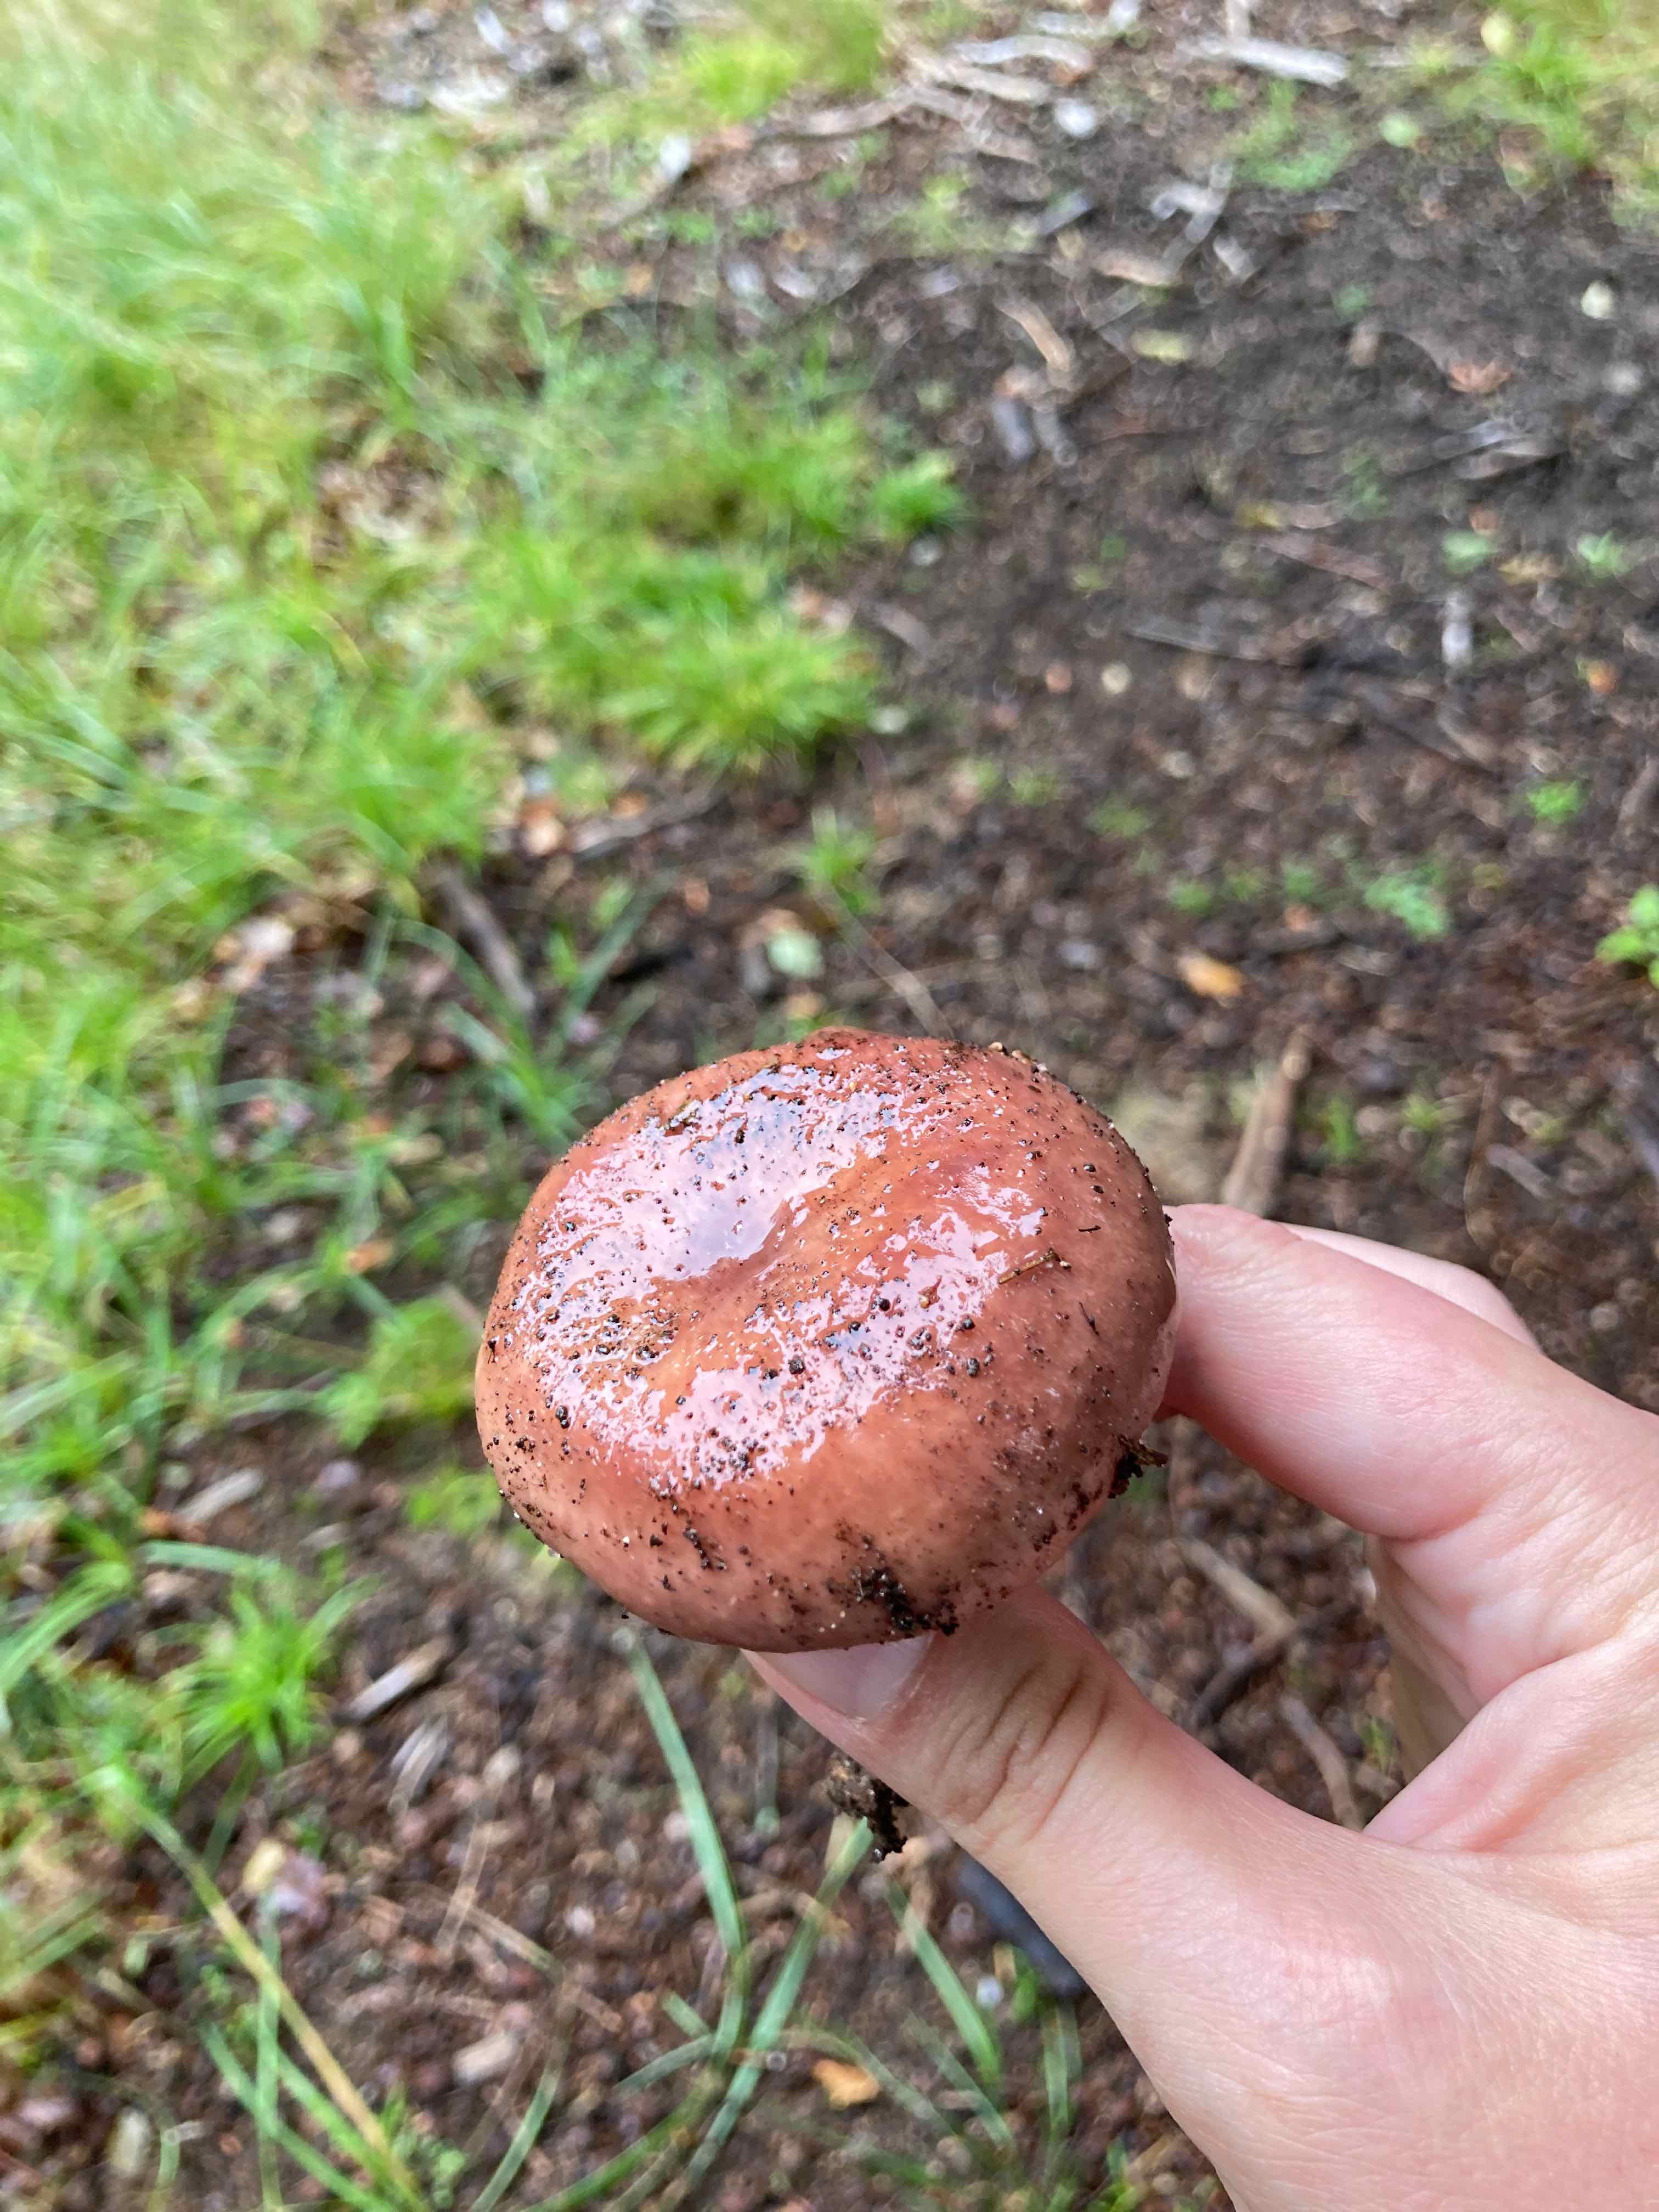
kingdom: Fungi
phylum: Basidiomycota
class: Agaricomycetes
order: Russulales
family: Russulaceae
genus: Russula
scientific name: Russula vesca
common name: spiselig skørhat
